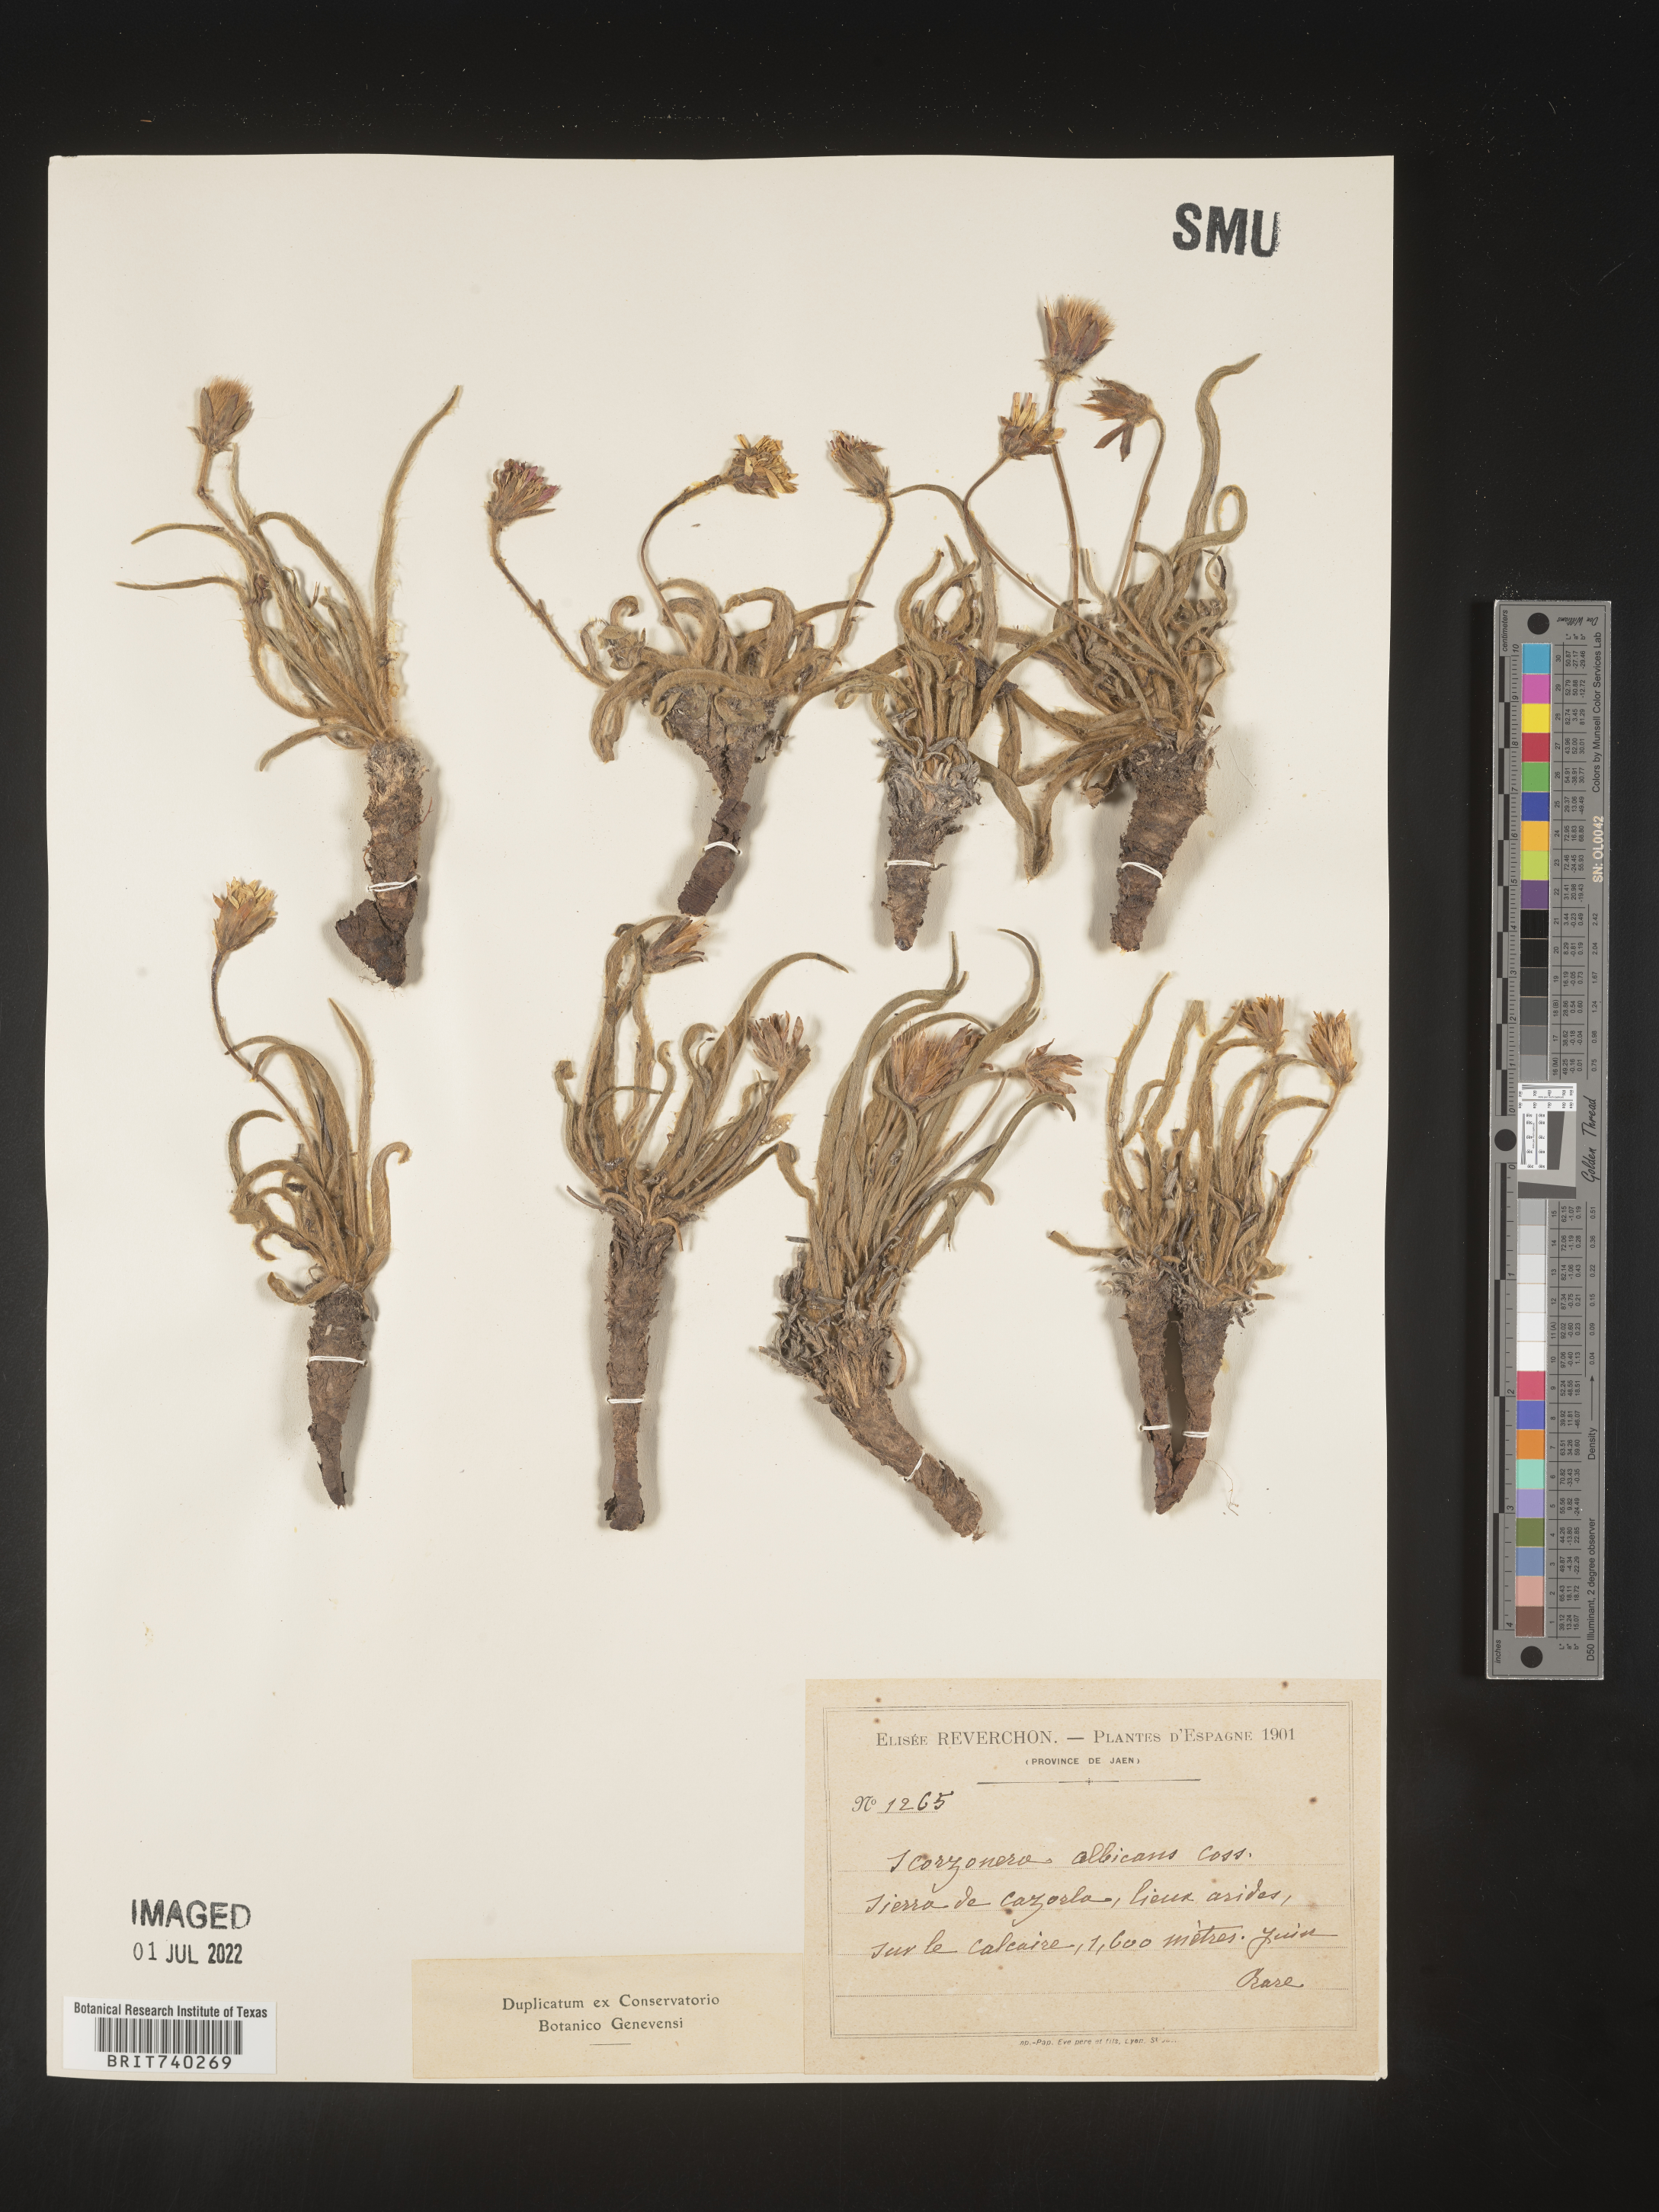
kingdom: Plantae
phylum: Tracheophyta
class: Magnoliopsida
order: Asterales
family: Asteraceae
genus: Scorzonera
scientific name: Scorzonera
